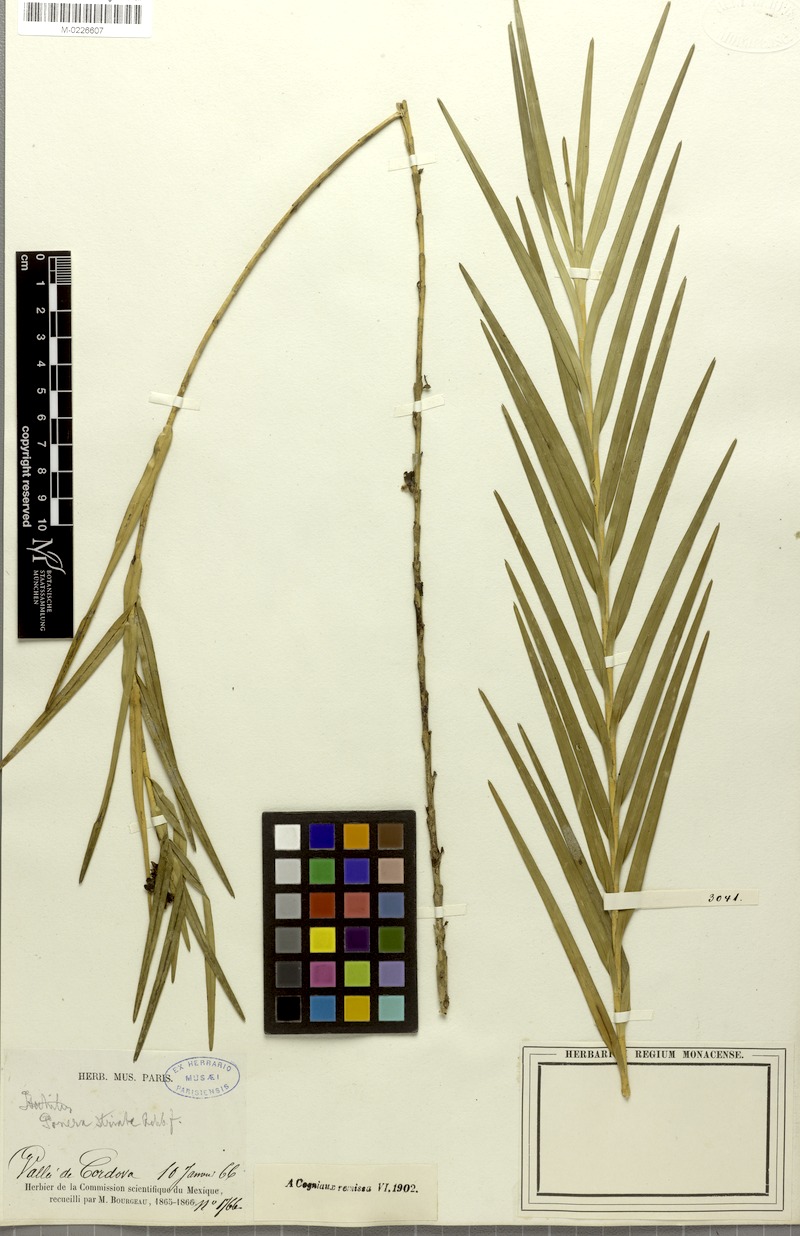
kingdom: Plantae
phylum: Tracheophyta
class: Liliopsida
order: Asparagales
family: Orchidaceae
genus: Nemaconia
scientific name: Nemaconia striata
